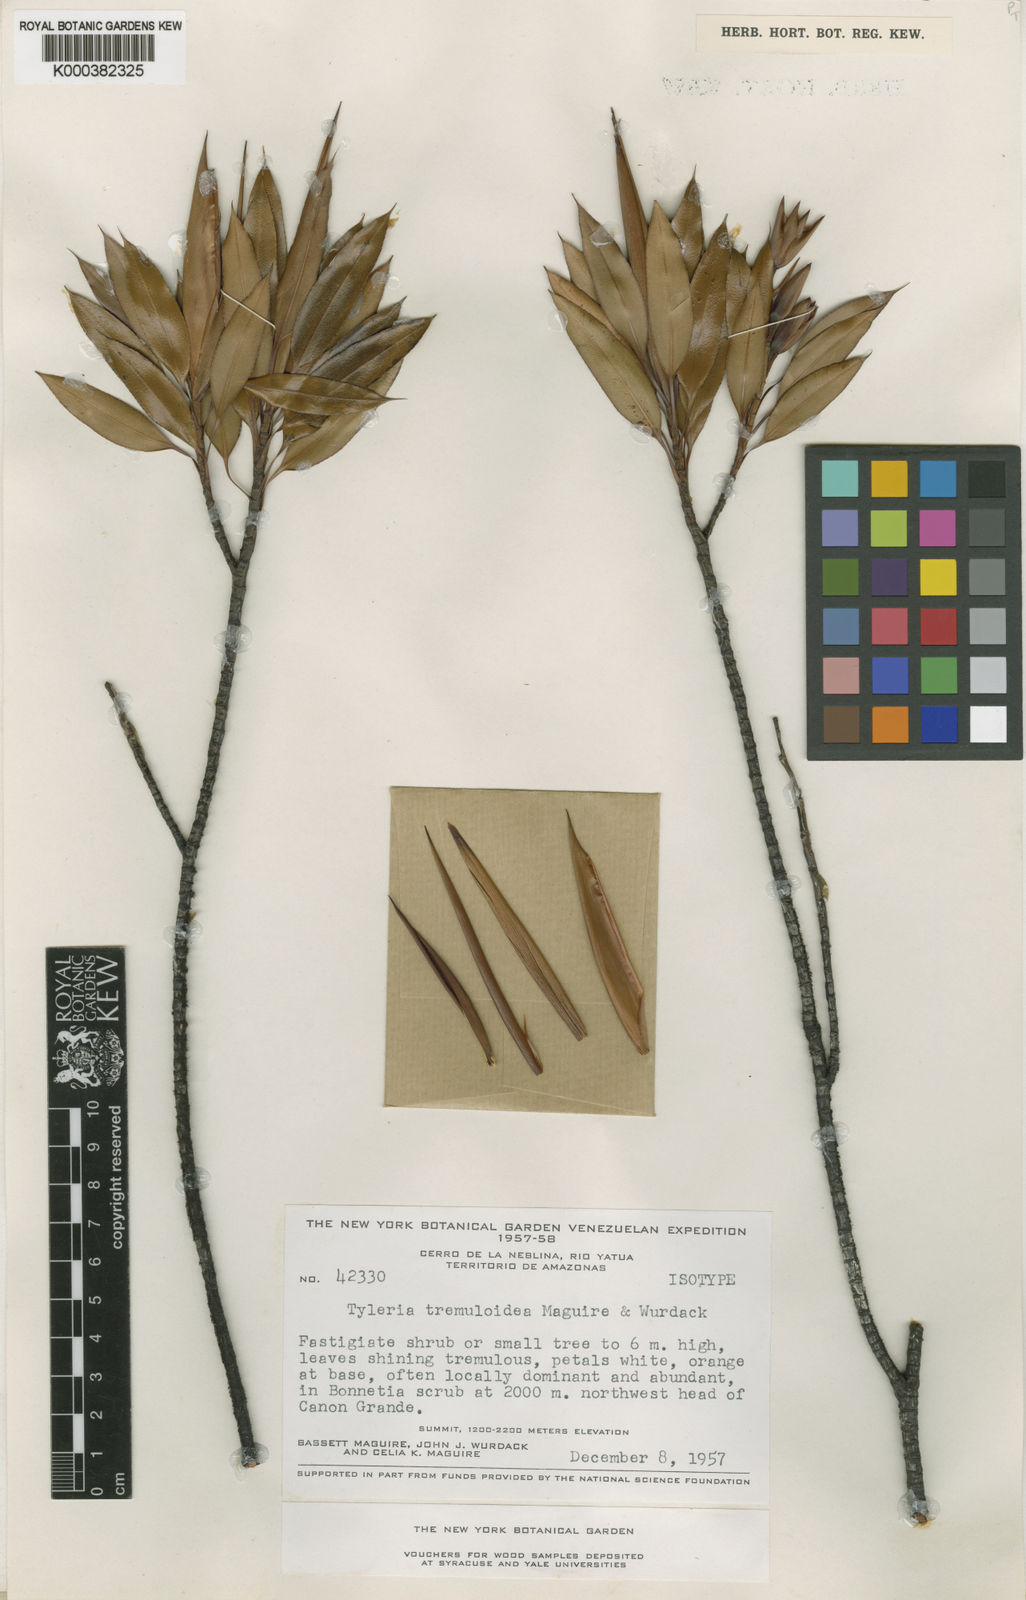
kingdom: Plantae
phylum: Tracheophyta
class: Magnoliopsida
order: Malpighiales
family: Ochnaceae
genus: Tyleria
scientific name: Tyleria tremuloidea
